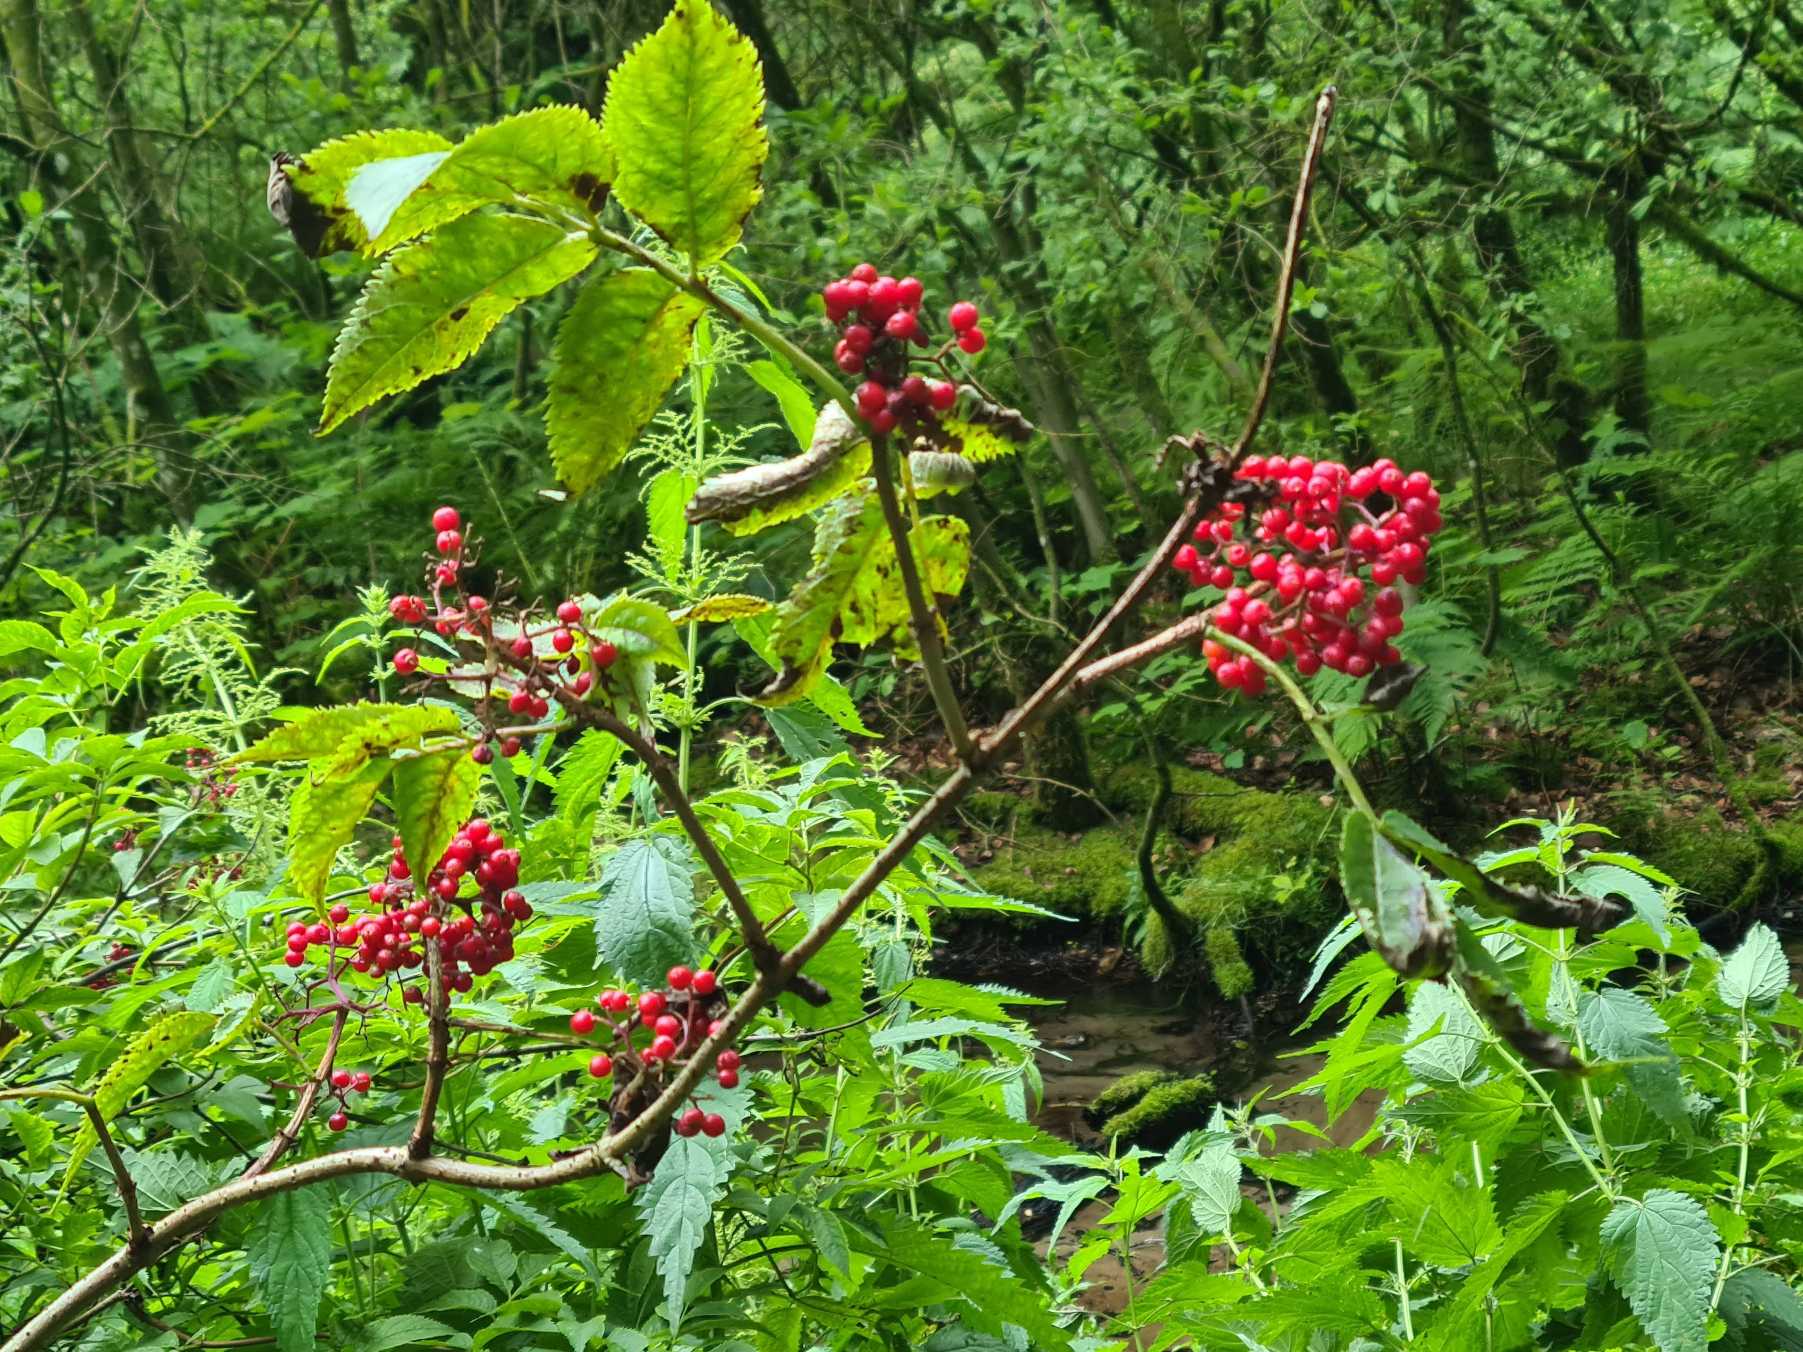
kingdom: Plantae
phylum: Tracheophyta
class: Magnoliopsida
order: Dipsacales
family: Viburnaceae
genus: Sambucus
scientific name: Sambucus racemosa
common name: Drue-hyld
